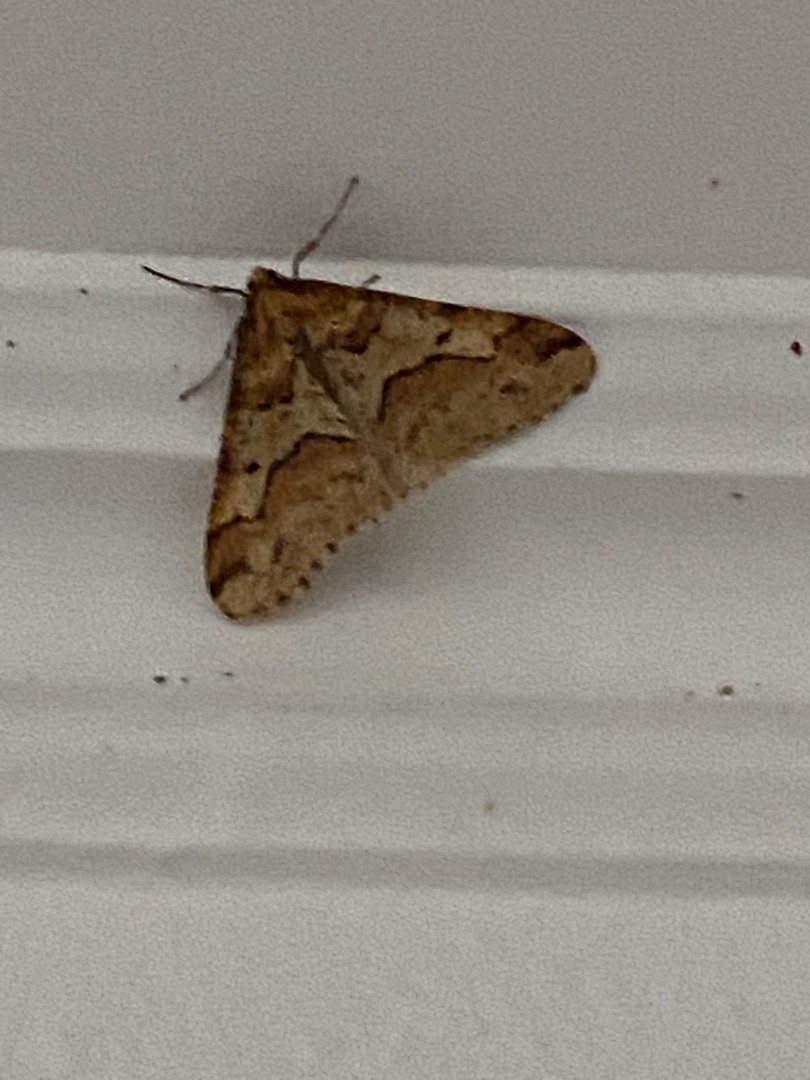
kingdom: Animalia
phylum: Arthropoda
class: Insecta
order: Lepidoptera
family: Geometridae
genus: Erannis
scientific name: Erannis defoliaria
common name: Stor frostmåler
